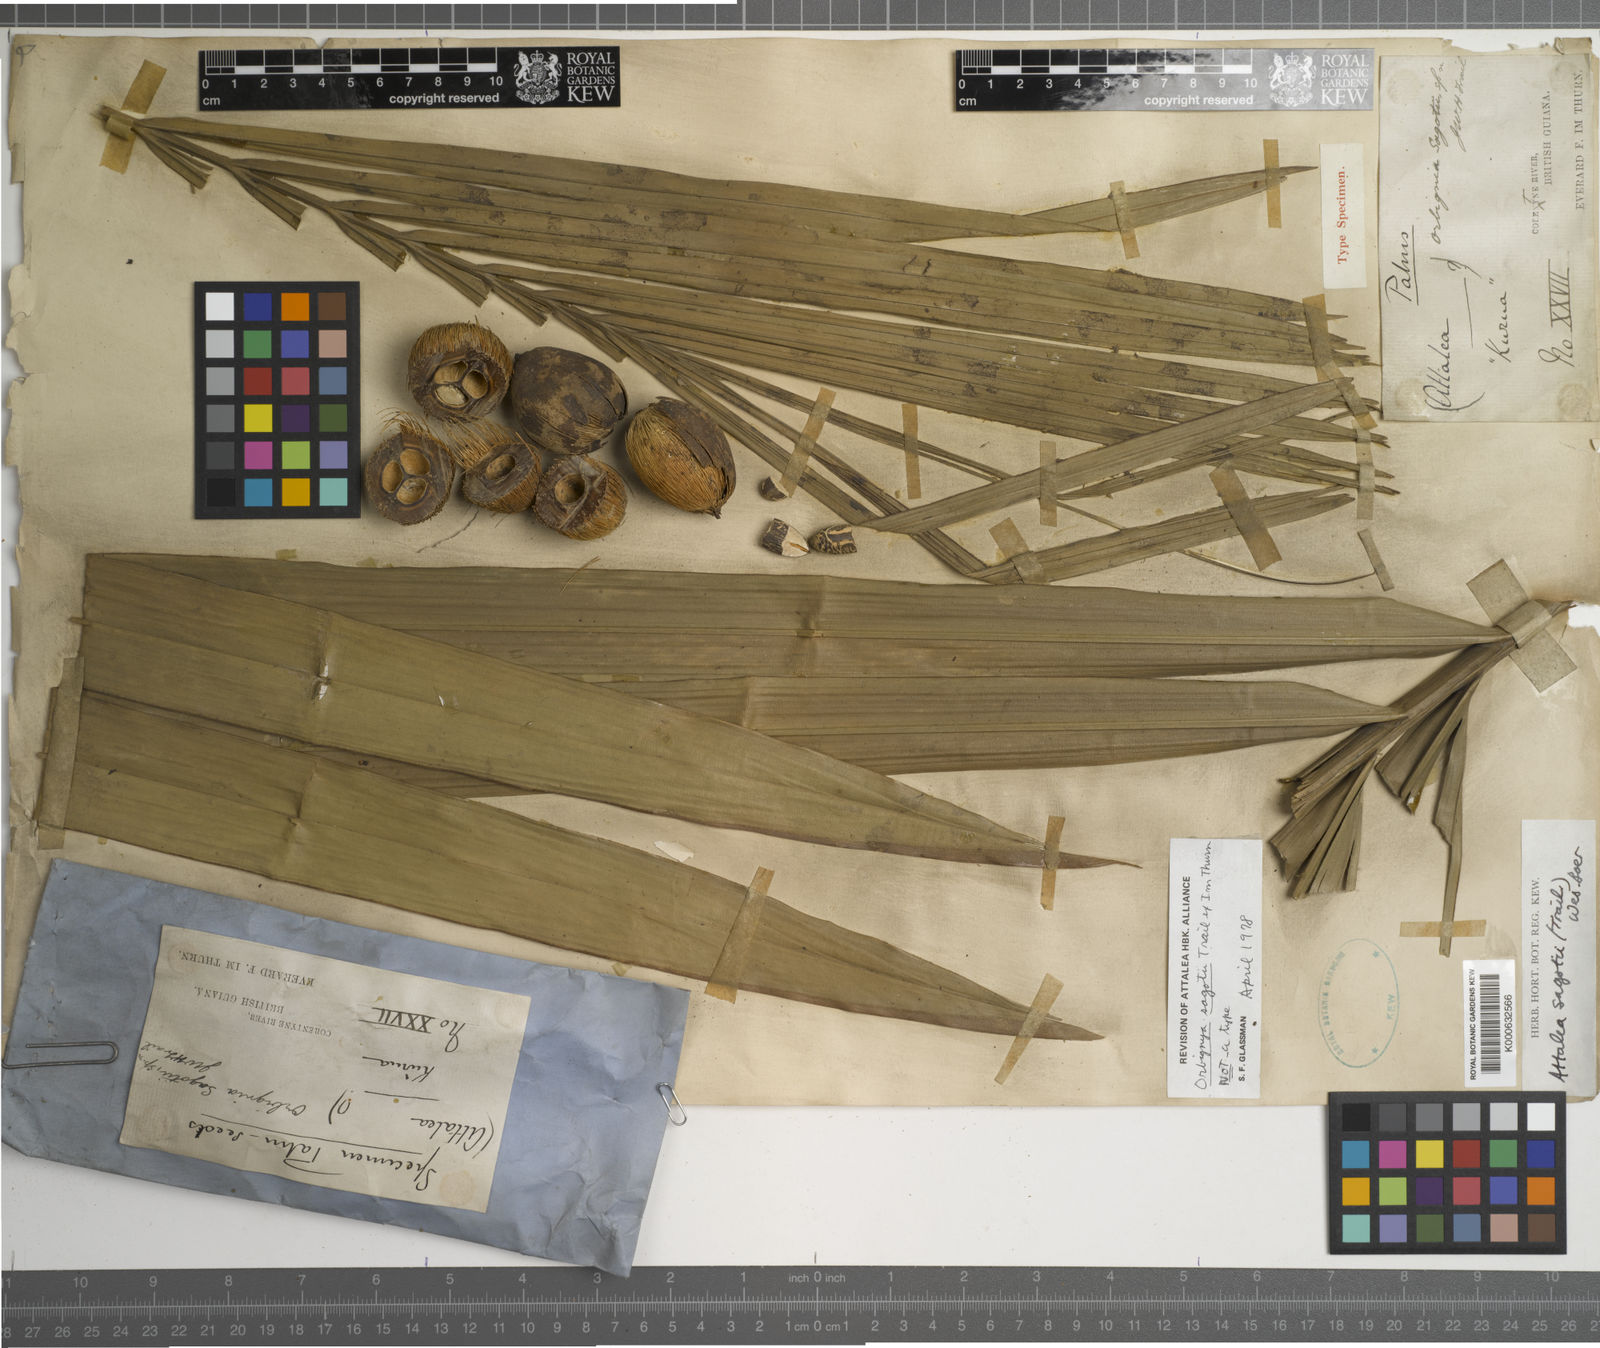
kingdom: Plantae
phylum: Tracheophyta
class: Liliopsida
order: Arecales
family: Arecaceae
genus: Attalea
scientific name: Attalea microcarpa
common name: Mountain maripa
